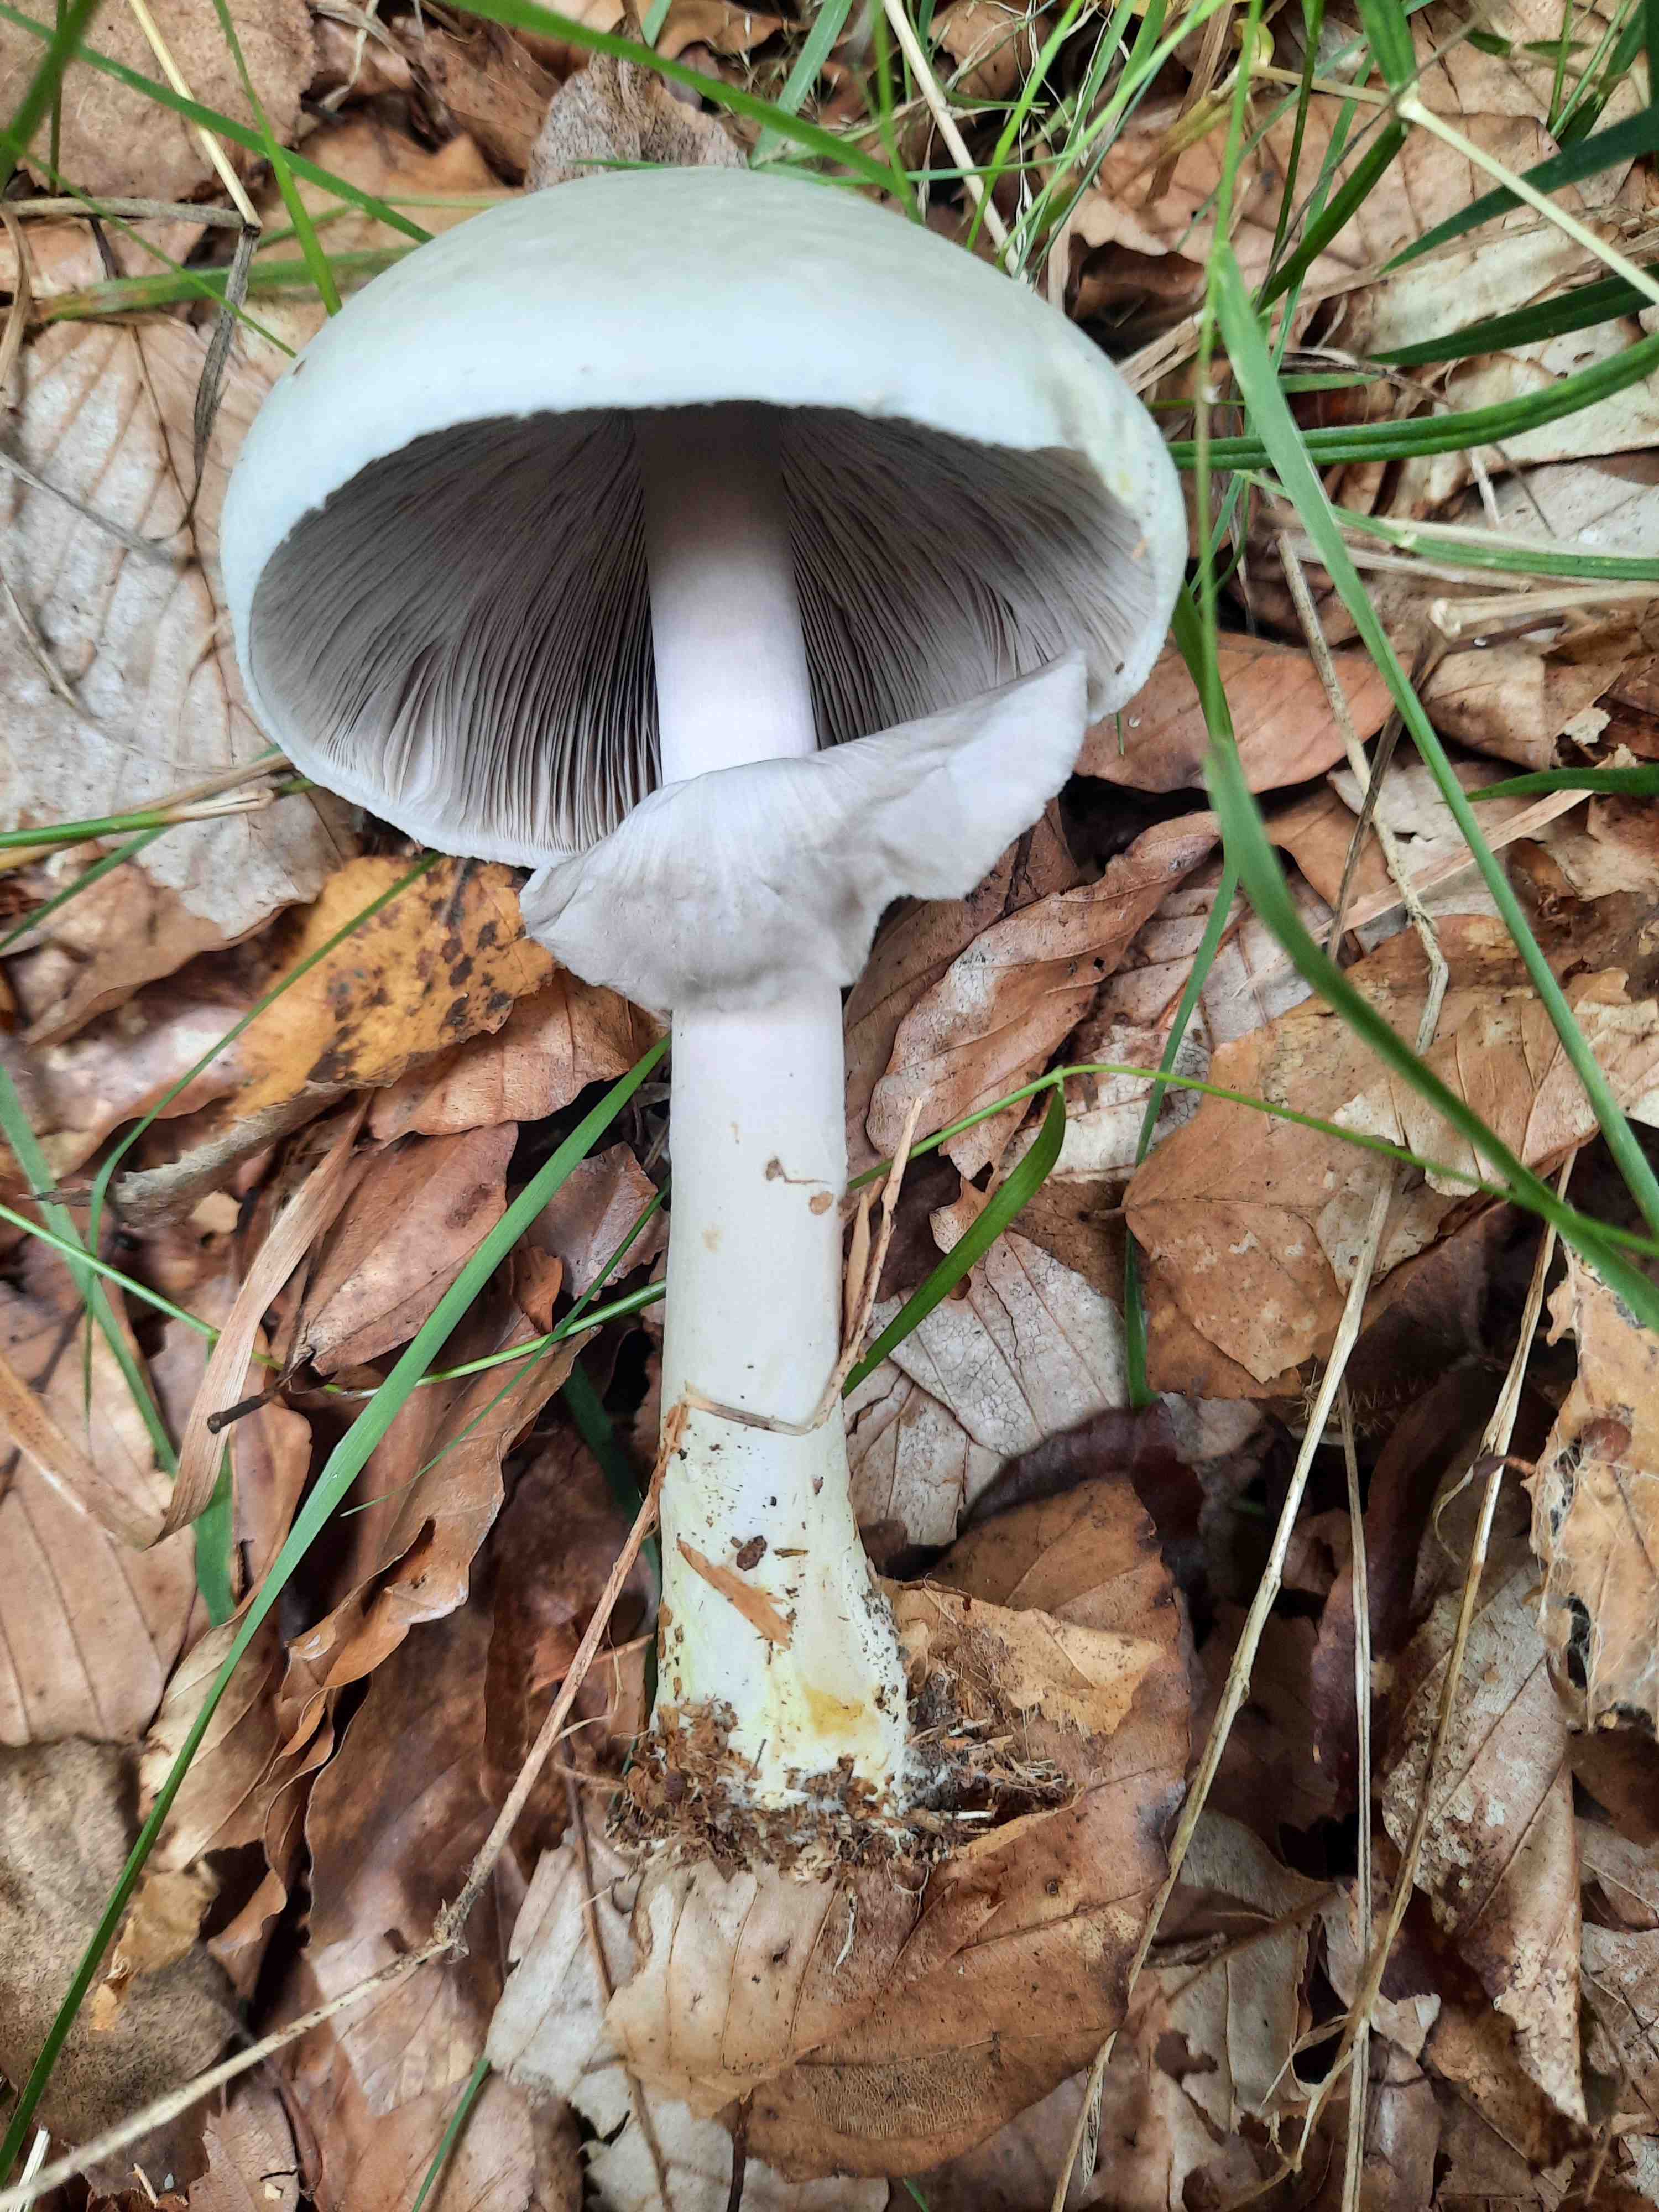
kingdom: Fungi
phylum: Basidiomycota
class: Agaricomycetes
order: Agaricales
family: Agaricaceae
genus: Agaricus
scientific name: Agaricus
